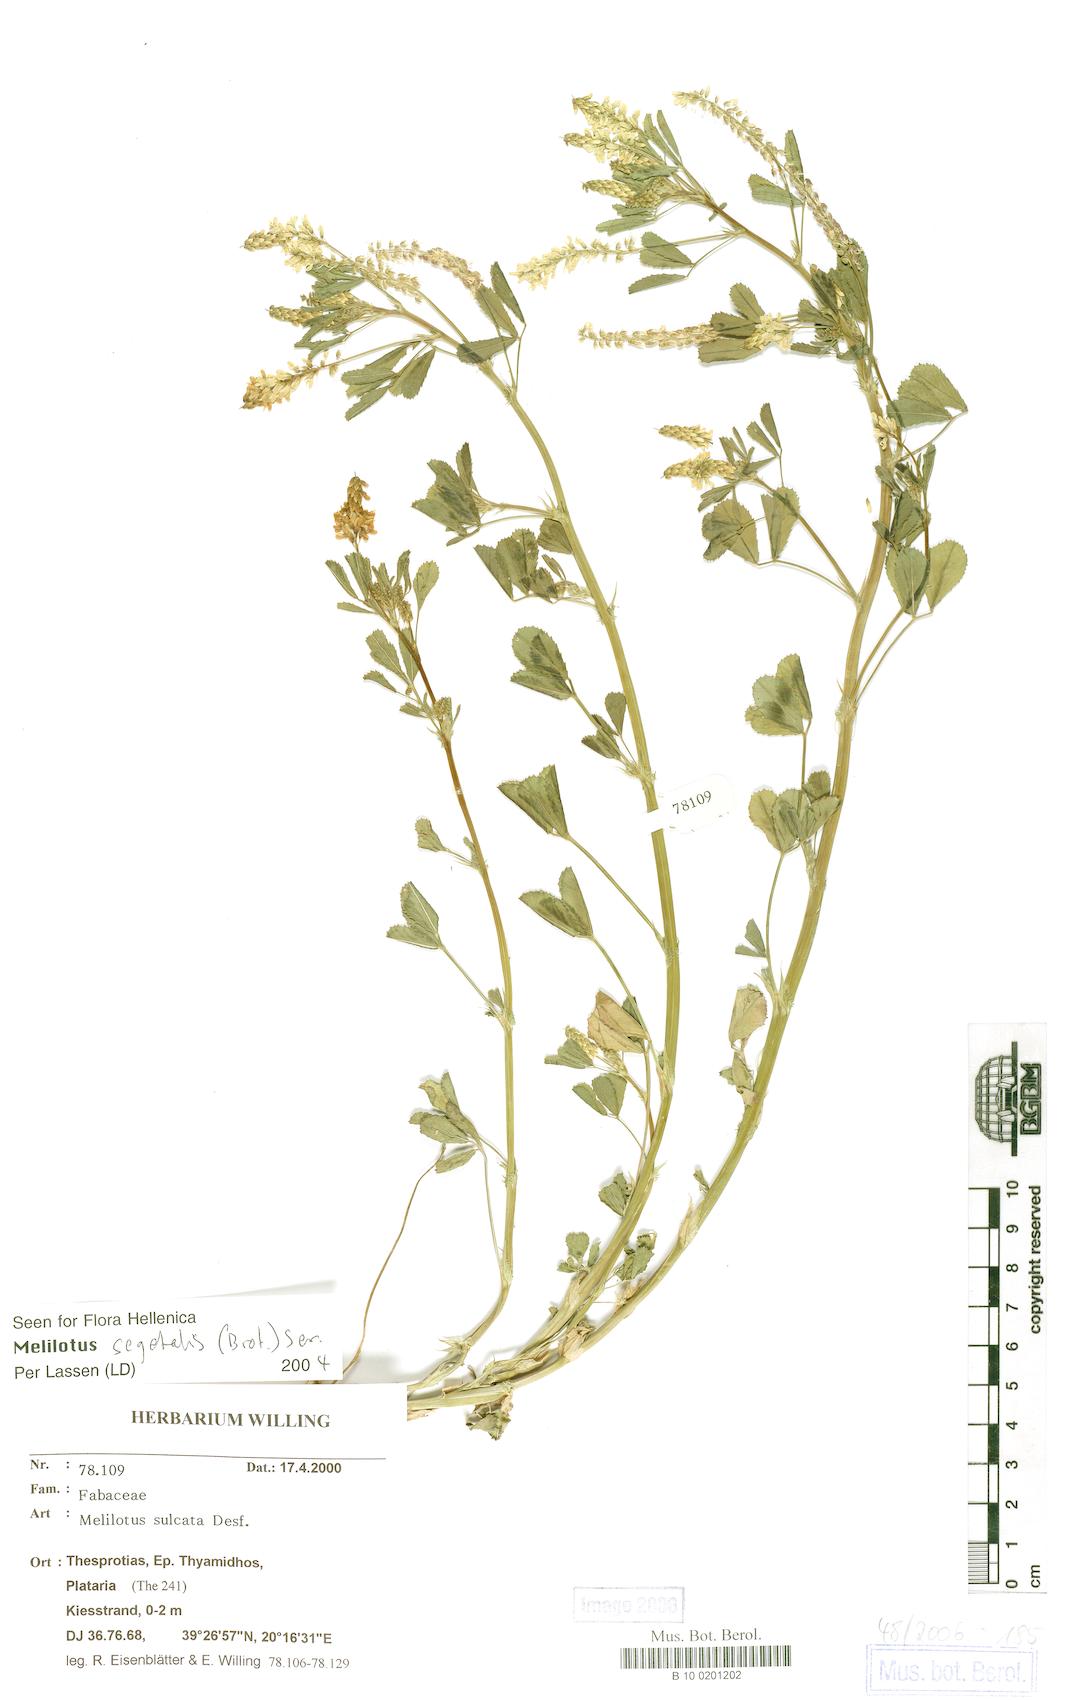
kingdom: Plantae
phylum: Tracheophyta
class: Magnoliopsida
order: Fabales
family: Fabaceae
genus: Melilotus
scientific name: Melilotus sulcatus
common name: Furrowed melilot
